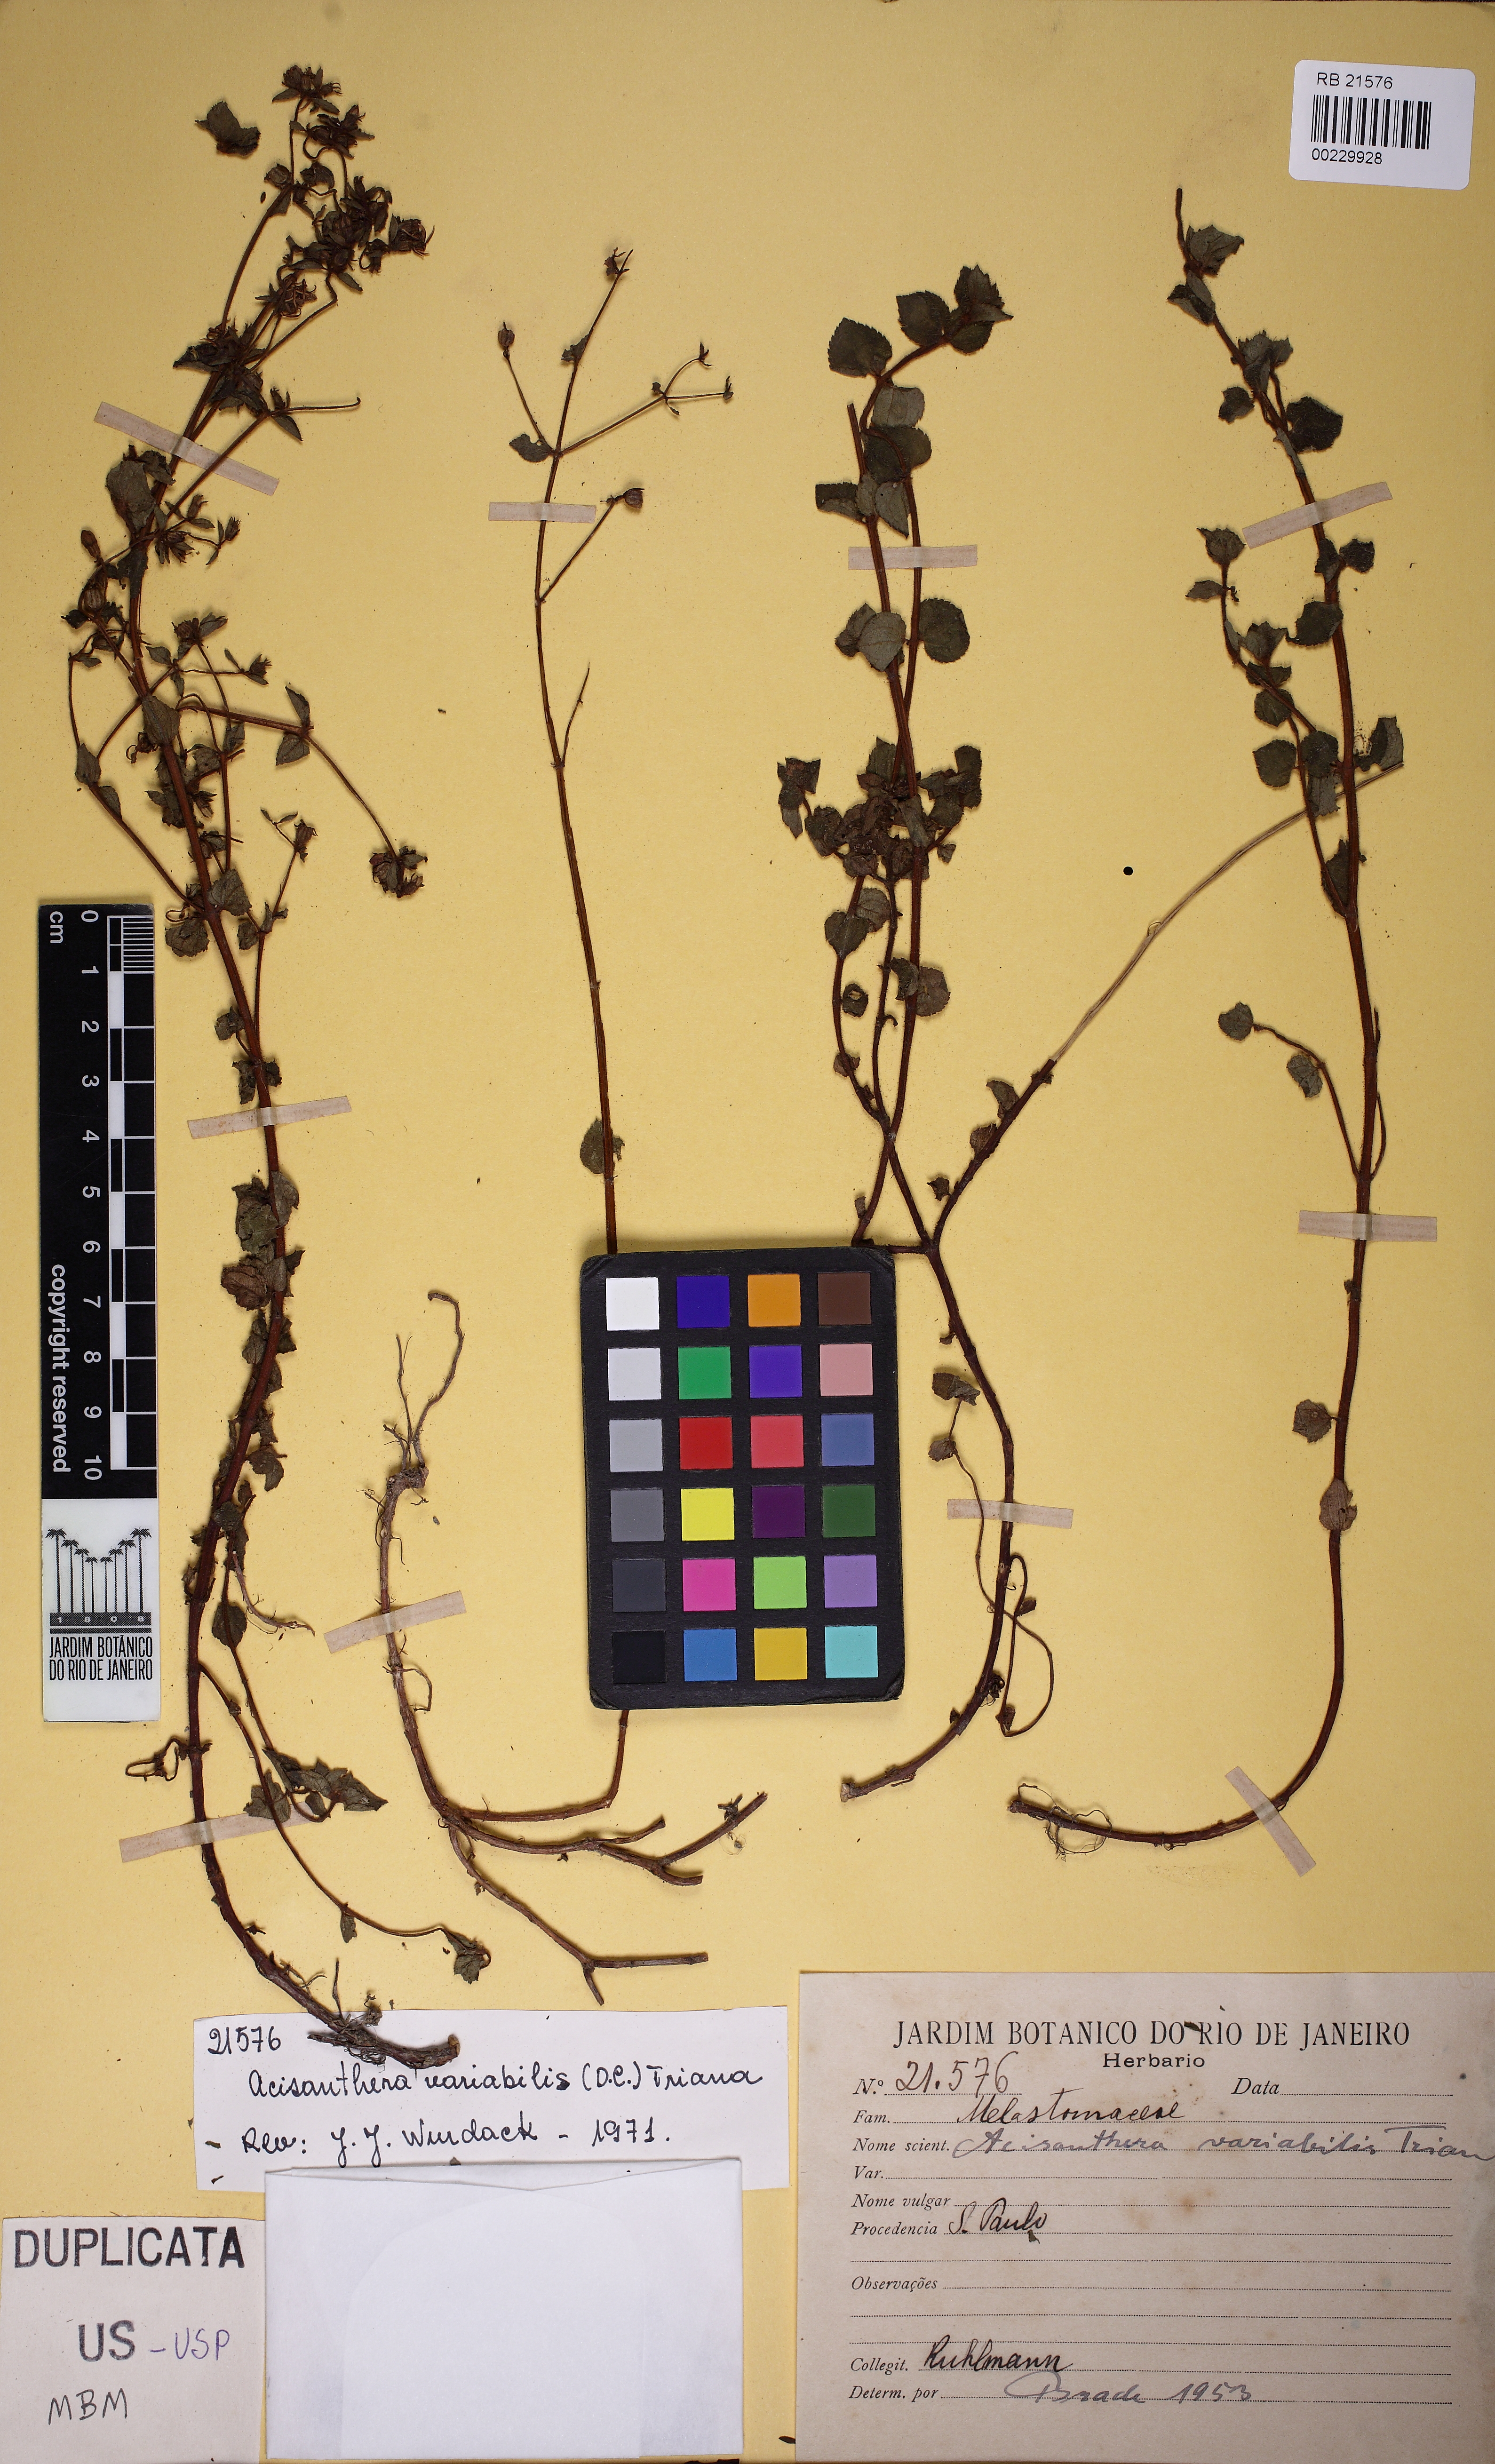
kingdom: Plantae
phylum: Tracheophyta
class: Magnoliopsida
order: Myrtales
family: Melastomataceae
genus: Acisanthera
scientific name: Acisanthera variabilis
